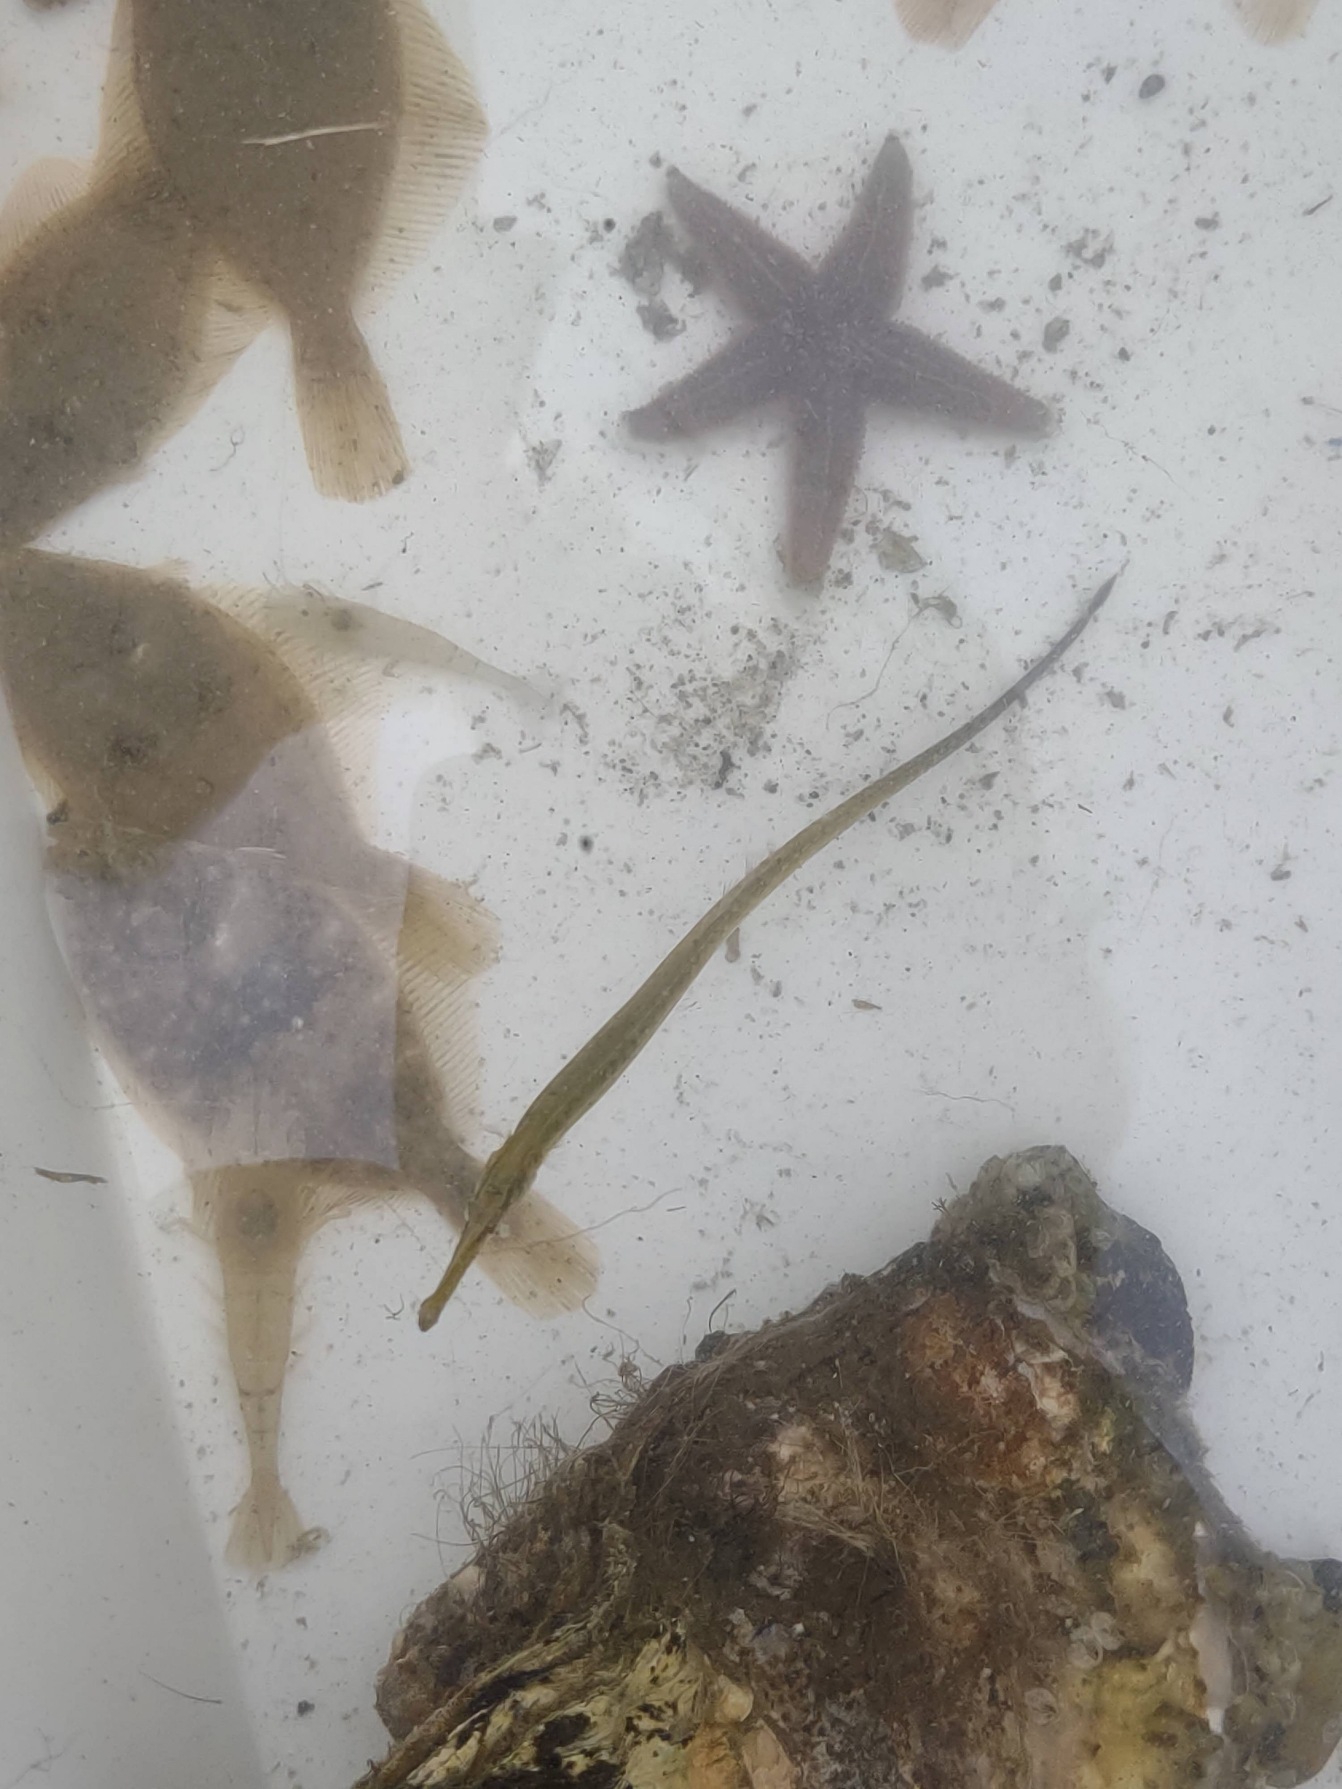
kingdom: Animalia
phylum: Chordata
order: Syngnathiformes
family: Syngnathidae
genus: Syngnathus
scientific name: Syngnathus typhle
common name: Almindelig tangnål
